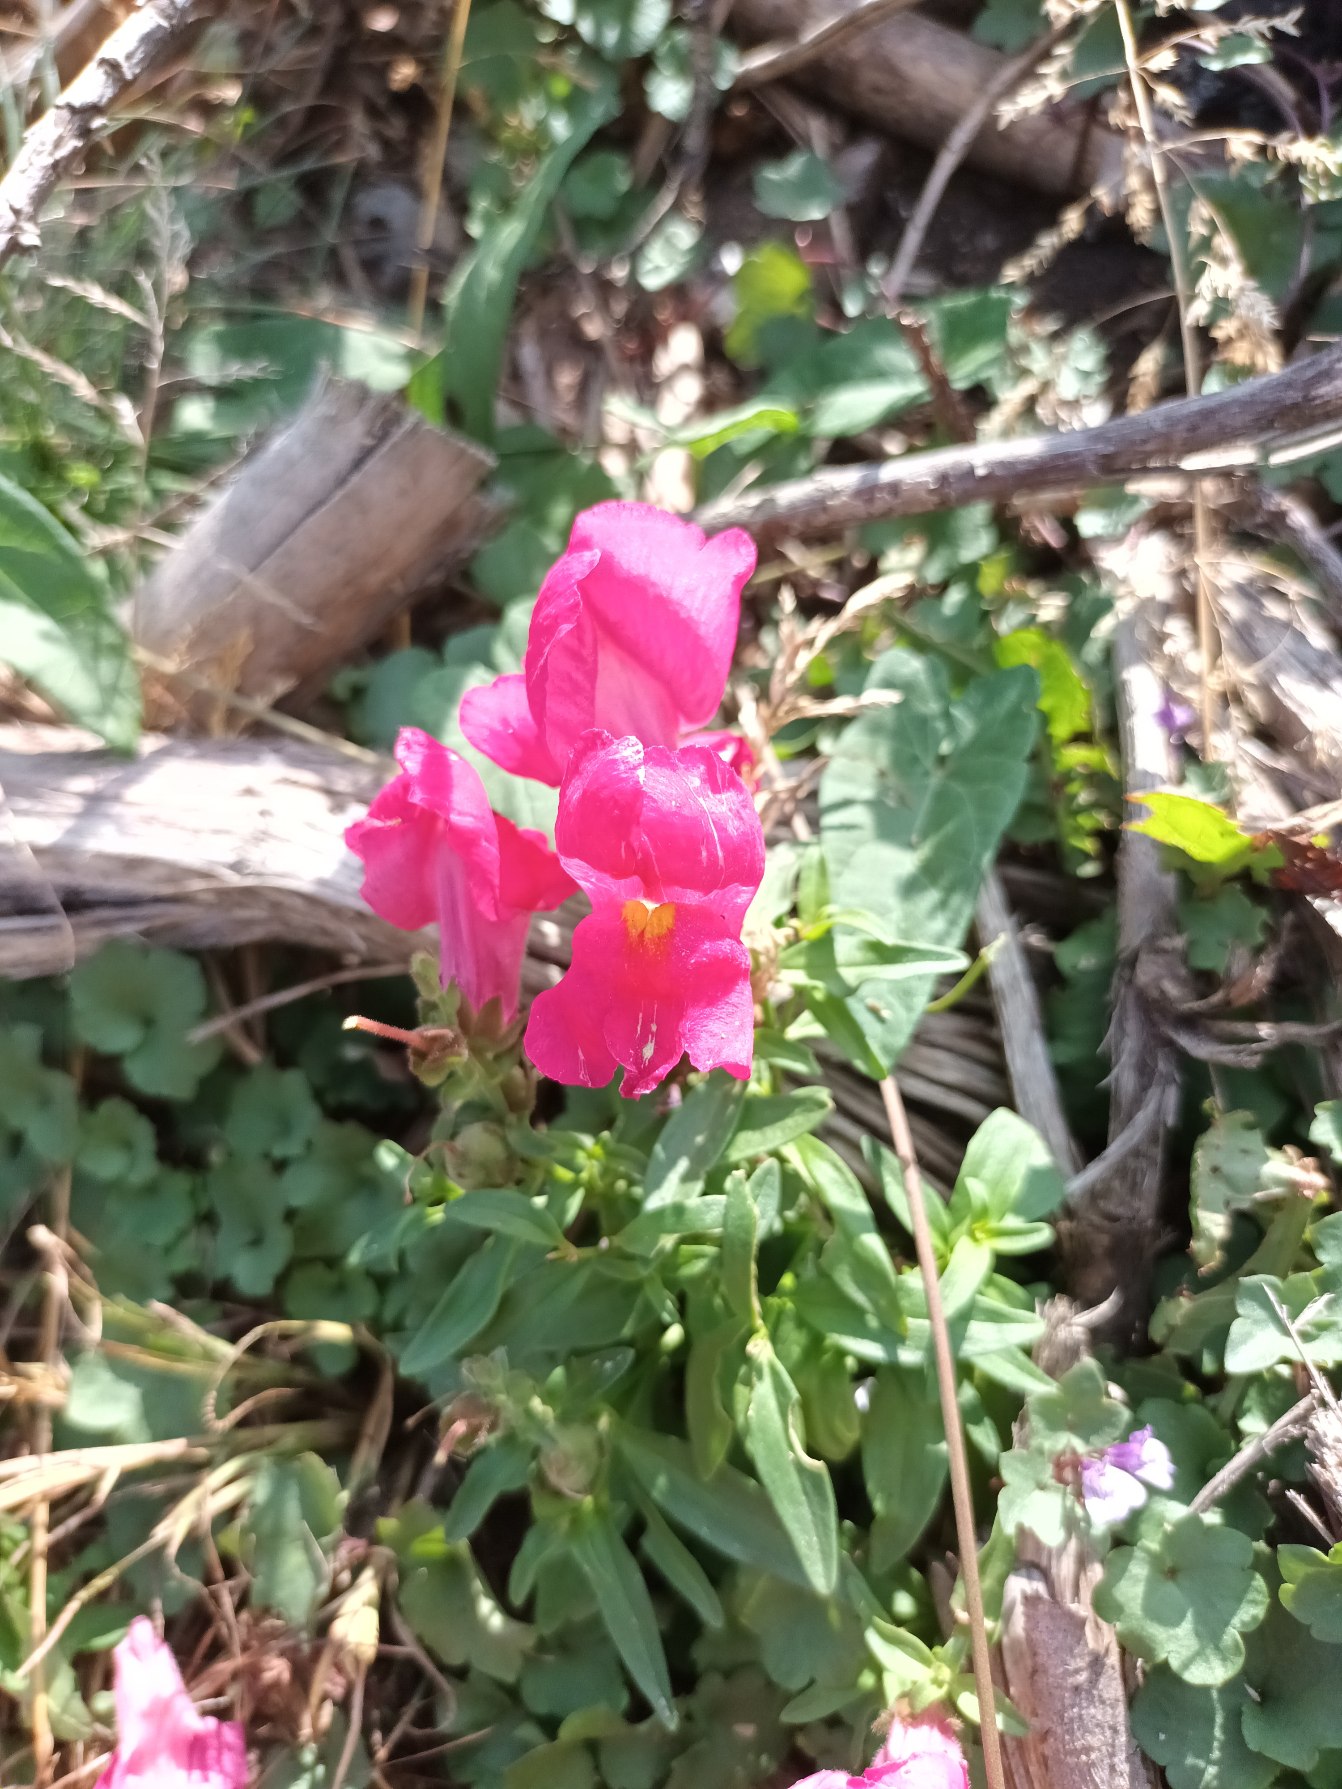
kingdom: Plantae
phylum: Tracheophyta
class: Magnoliopsida
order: Lamiales
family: Plantaginaceae
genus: Antirrhinum
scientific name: Antirrhinum majus
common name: Have-løvemund
